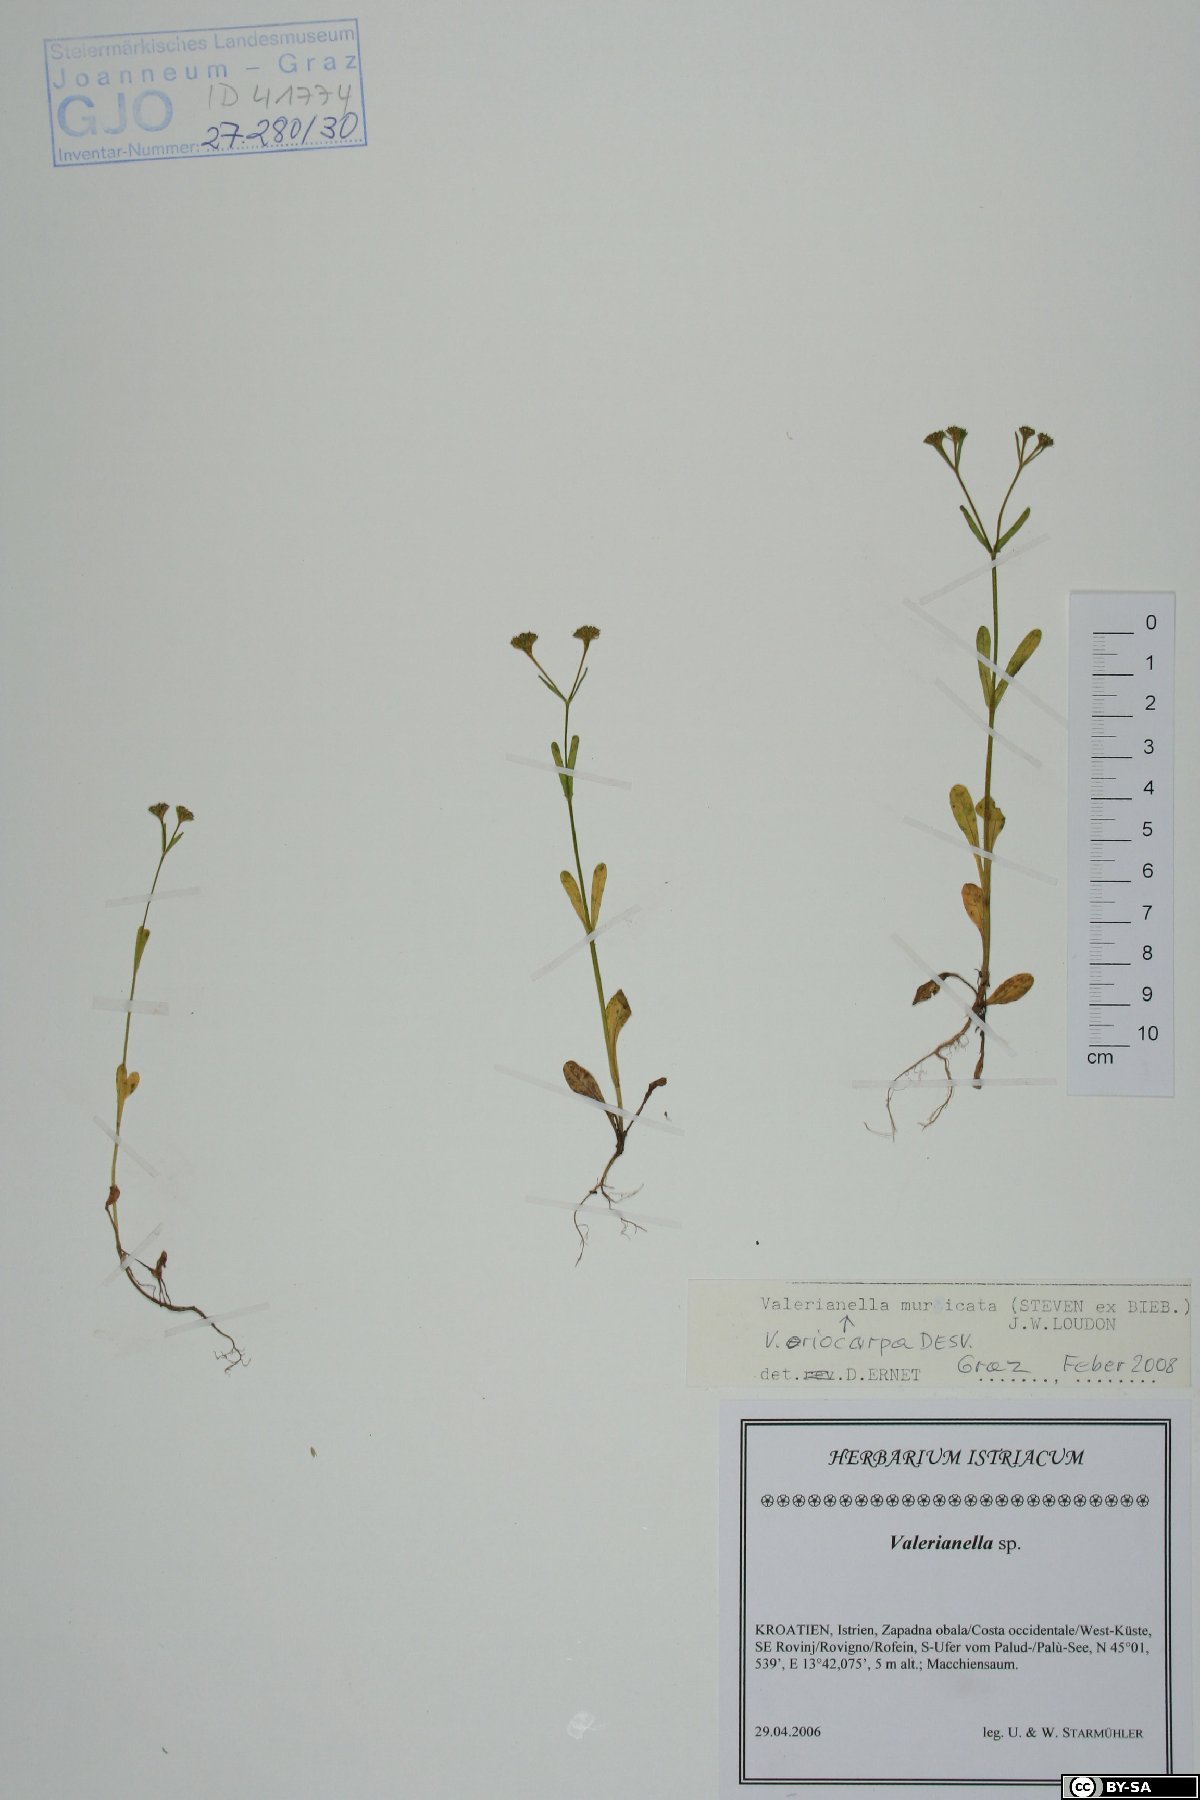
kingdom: Plantae
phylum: Tracheophyta
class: Magnoliopsida
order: Dipsacales
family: Caprifoliaceae
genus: Valerianella
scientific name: Valerianella eriocarpa
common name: Hairy-fruited cornsalad
